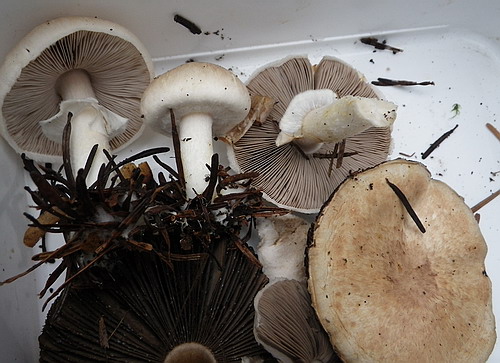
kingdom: Fungi
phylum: Basidiomycota
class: Agaricomycetes
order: Agaricales
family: Agaricaceae
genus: Agaricus
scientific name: Agaricus brunneolus
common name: purpur-champignon
